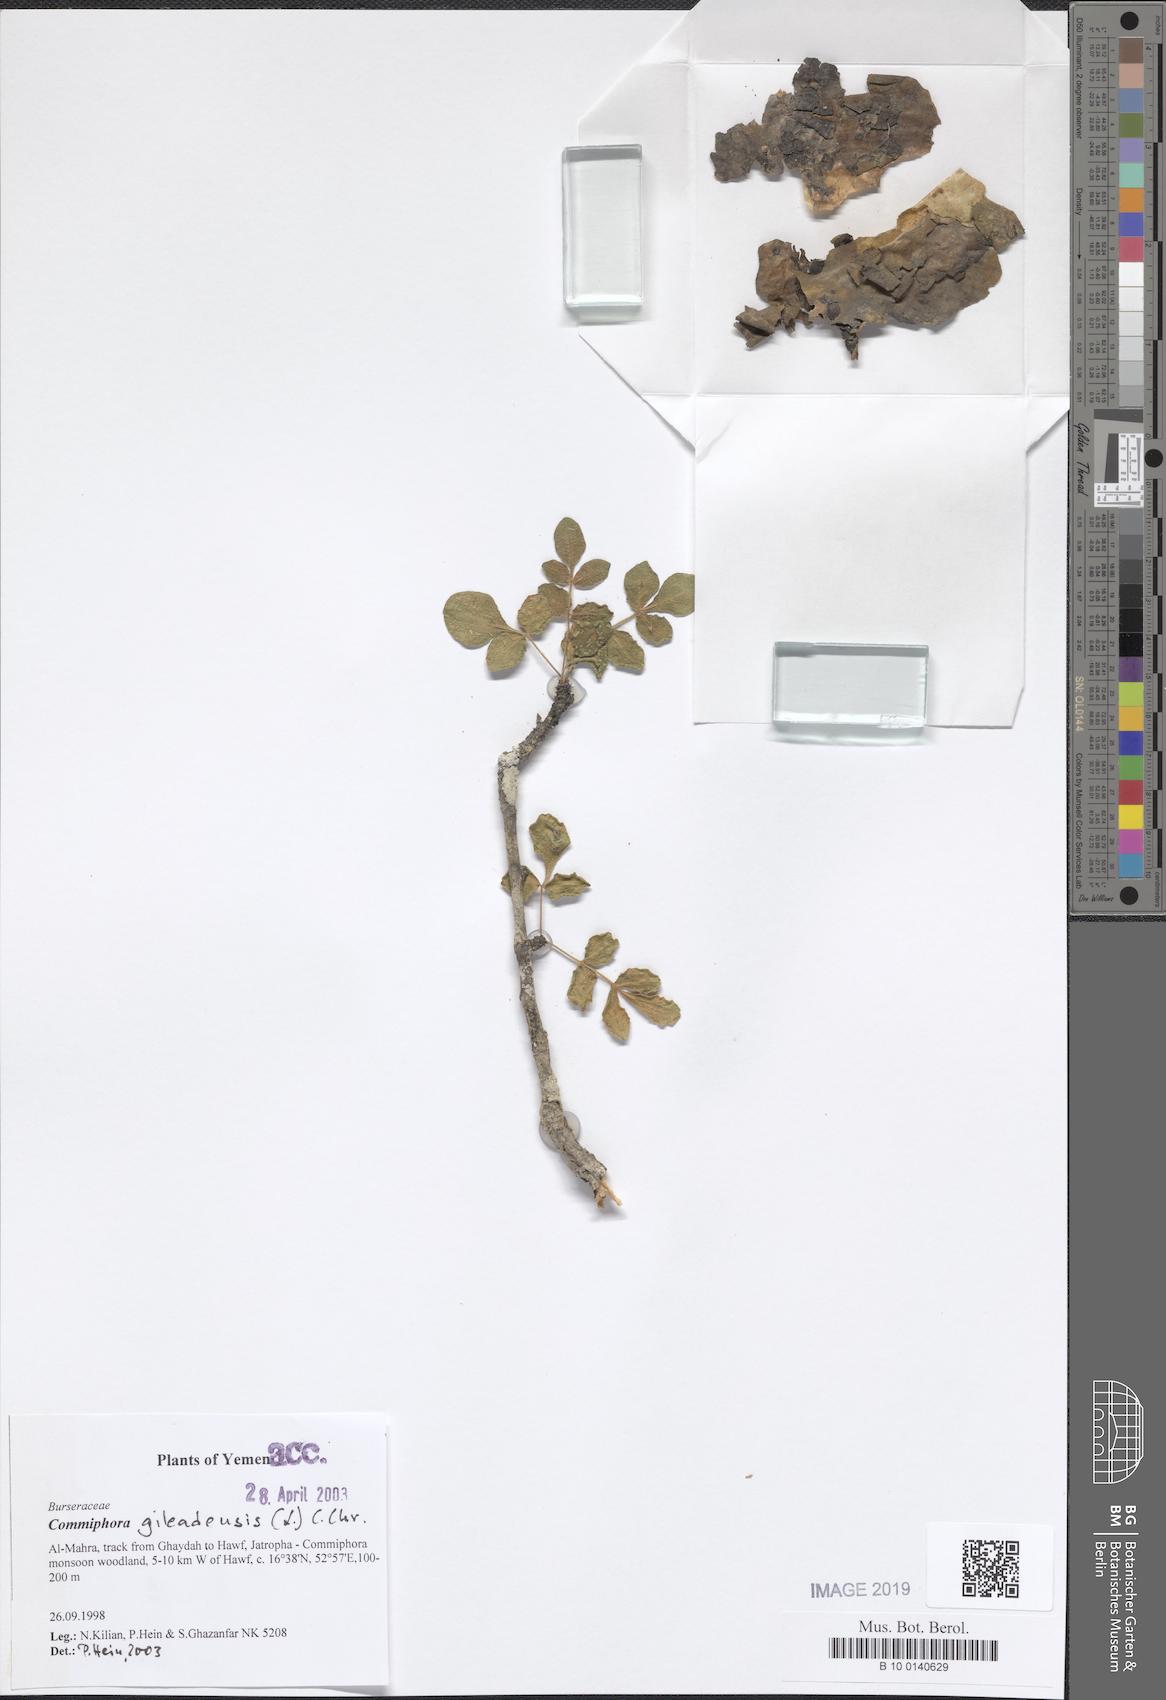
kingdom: Plantae
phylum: Tracheophyta
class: Magnoliopsida
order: Sapindales
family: Burseraceae
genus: Commiphora
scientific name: Commiphora gileadensis
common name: Balm-of-gilead
